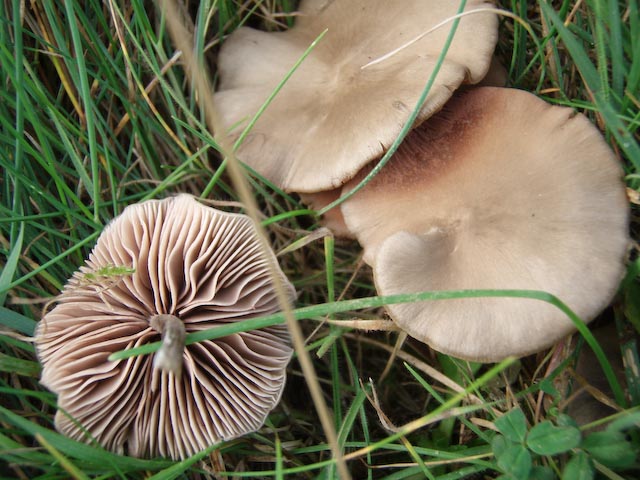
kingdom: Fungi
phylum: Basidiomycota
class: Agaricomycetes
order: Agaricales
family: Entolomataceae
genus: Entoloma
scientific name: Entoloma sericeum
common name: silkeglinsende rødblad
